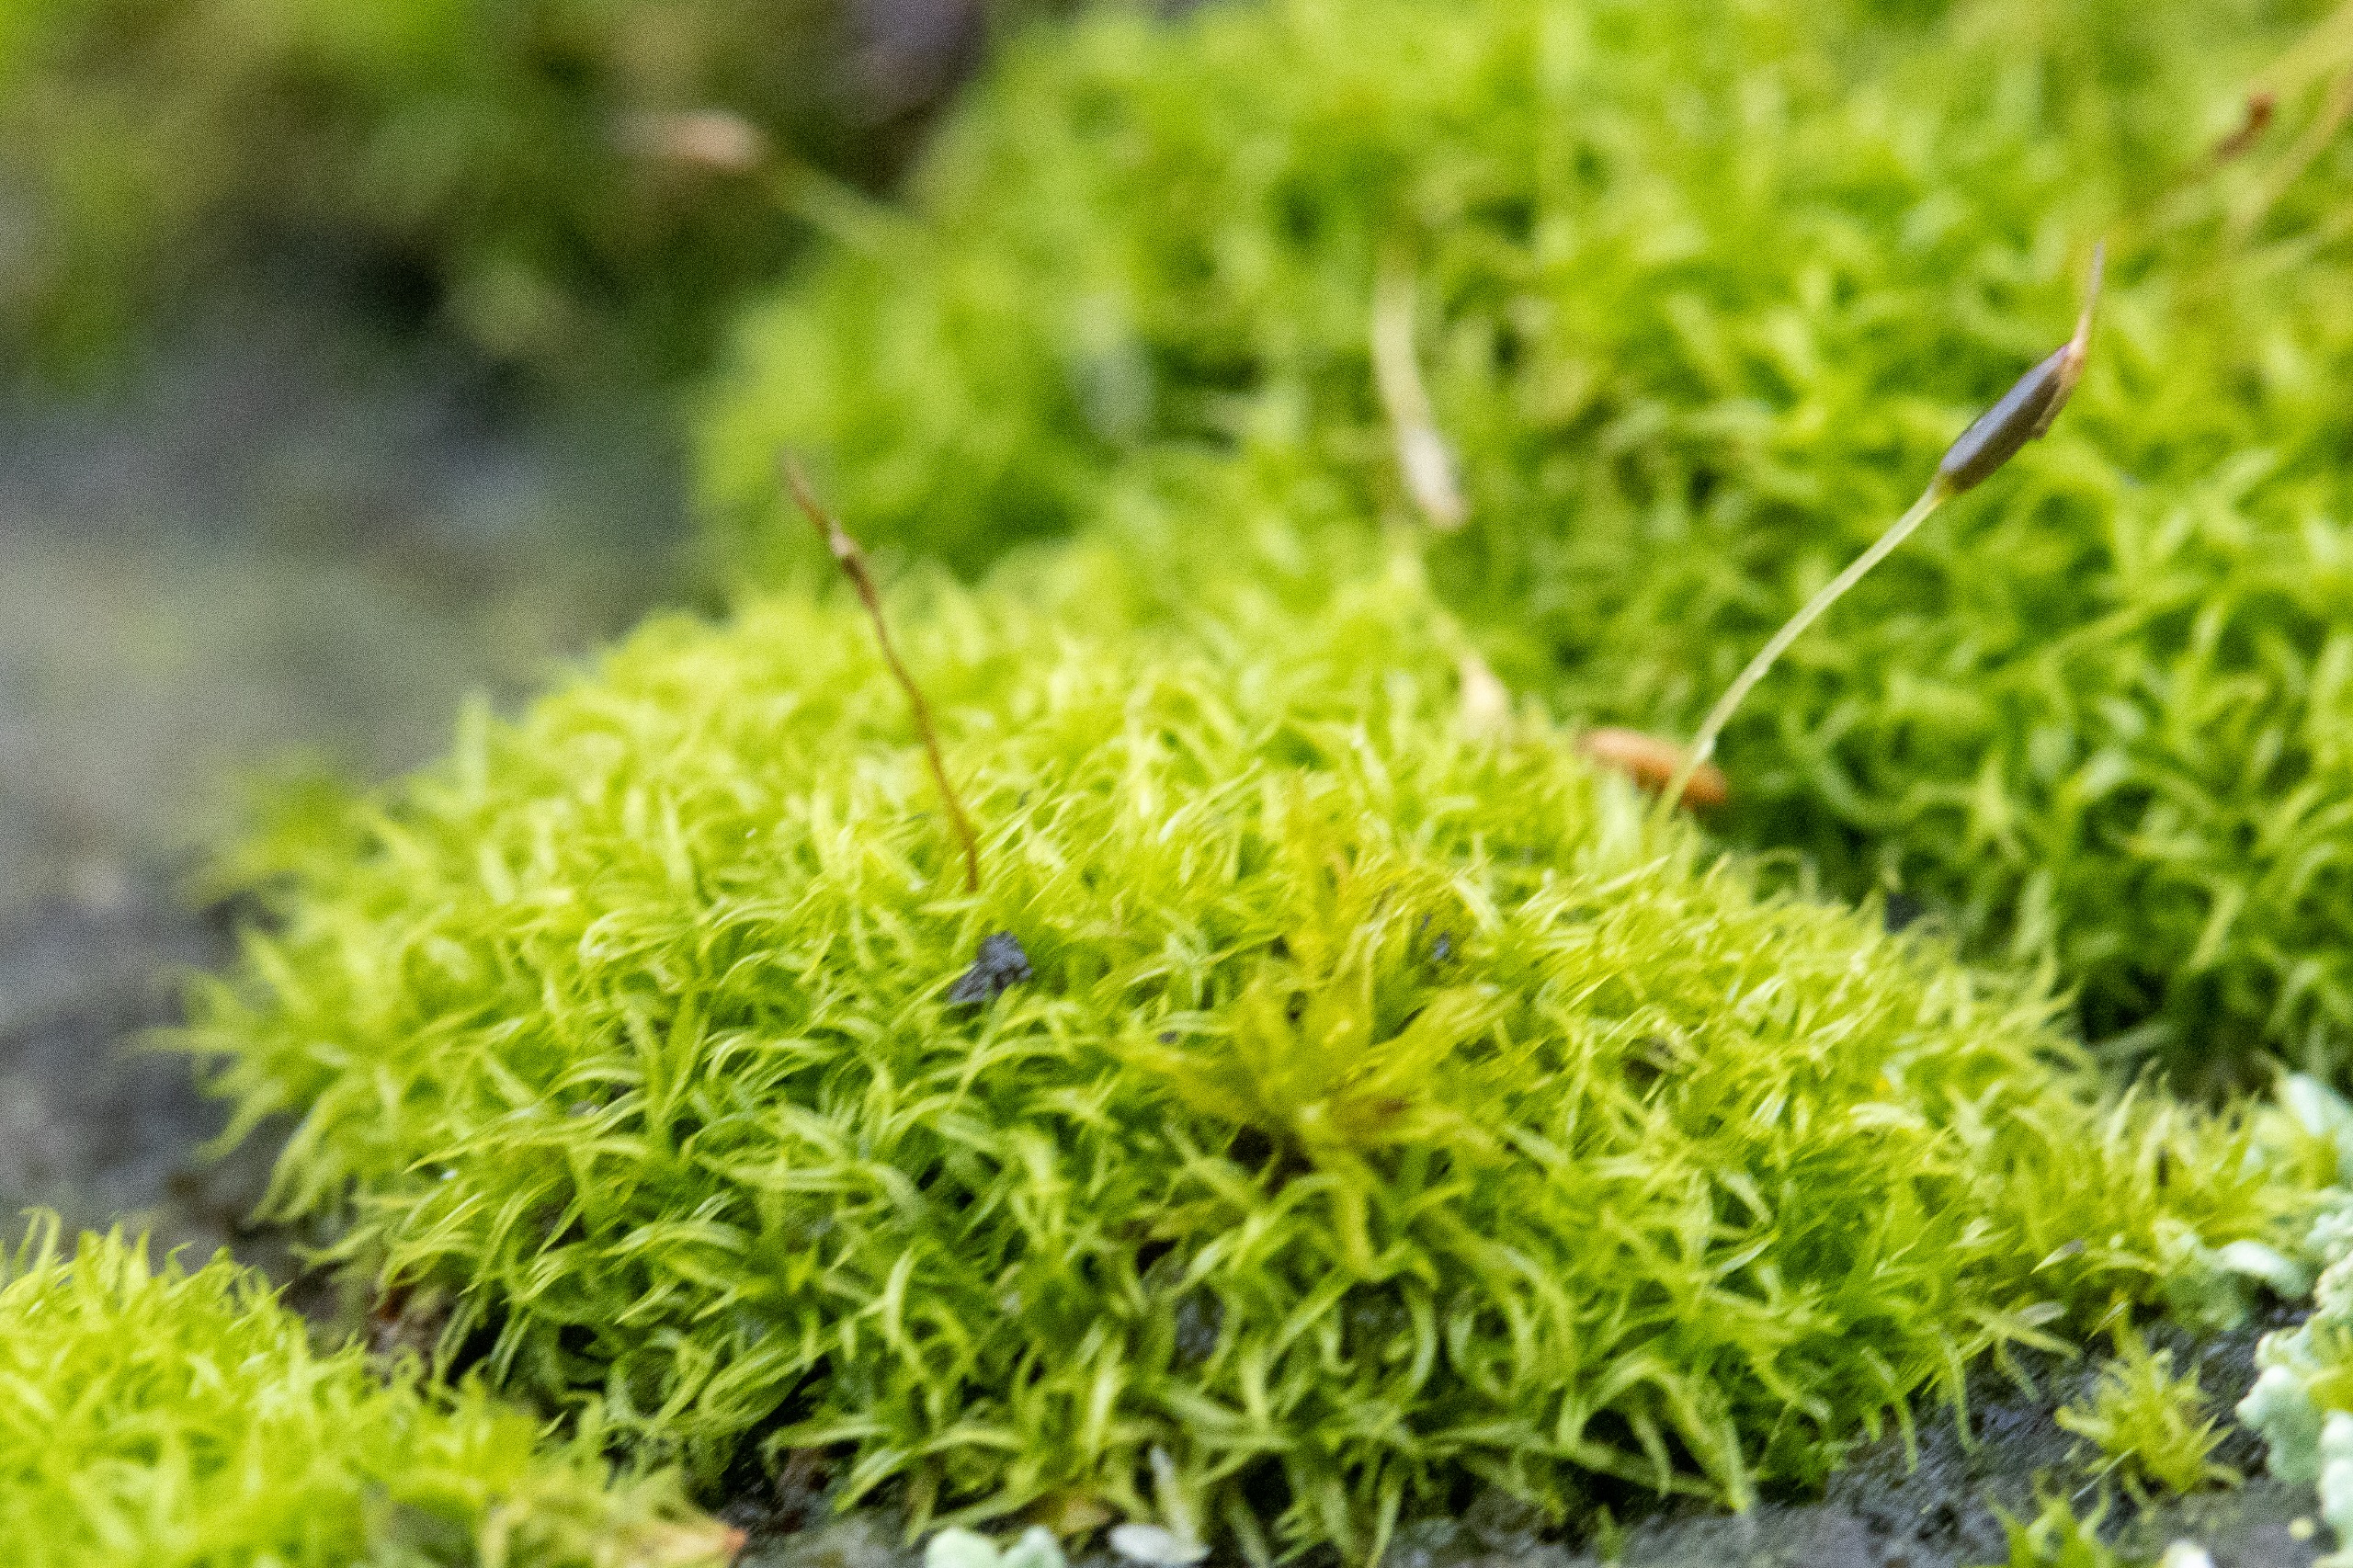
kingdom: Plantae
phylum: Bryophyta
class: Bryopsida
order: Dicranales
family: Rhabdoweisiaceae
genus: Dicranoweisia
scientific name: Dicranoweisia cirrata
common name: Almindelig krøltuemos
